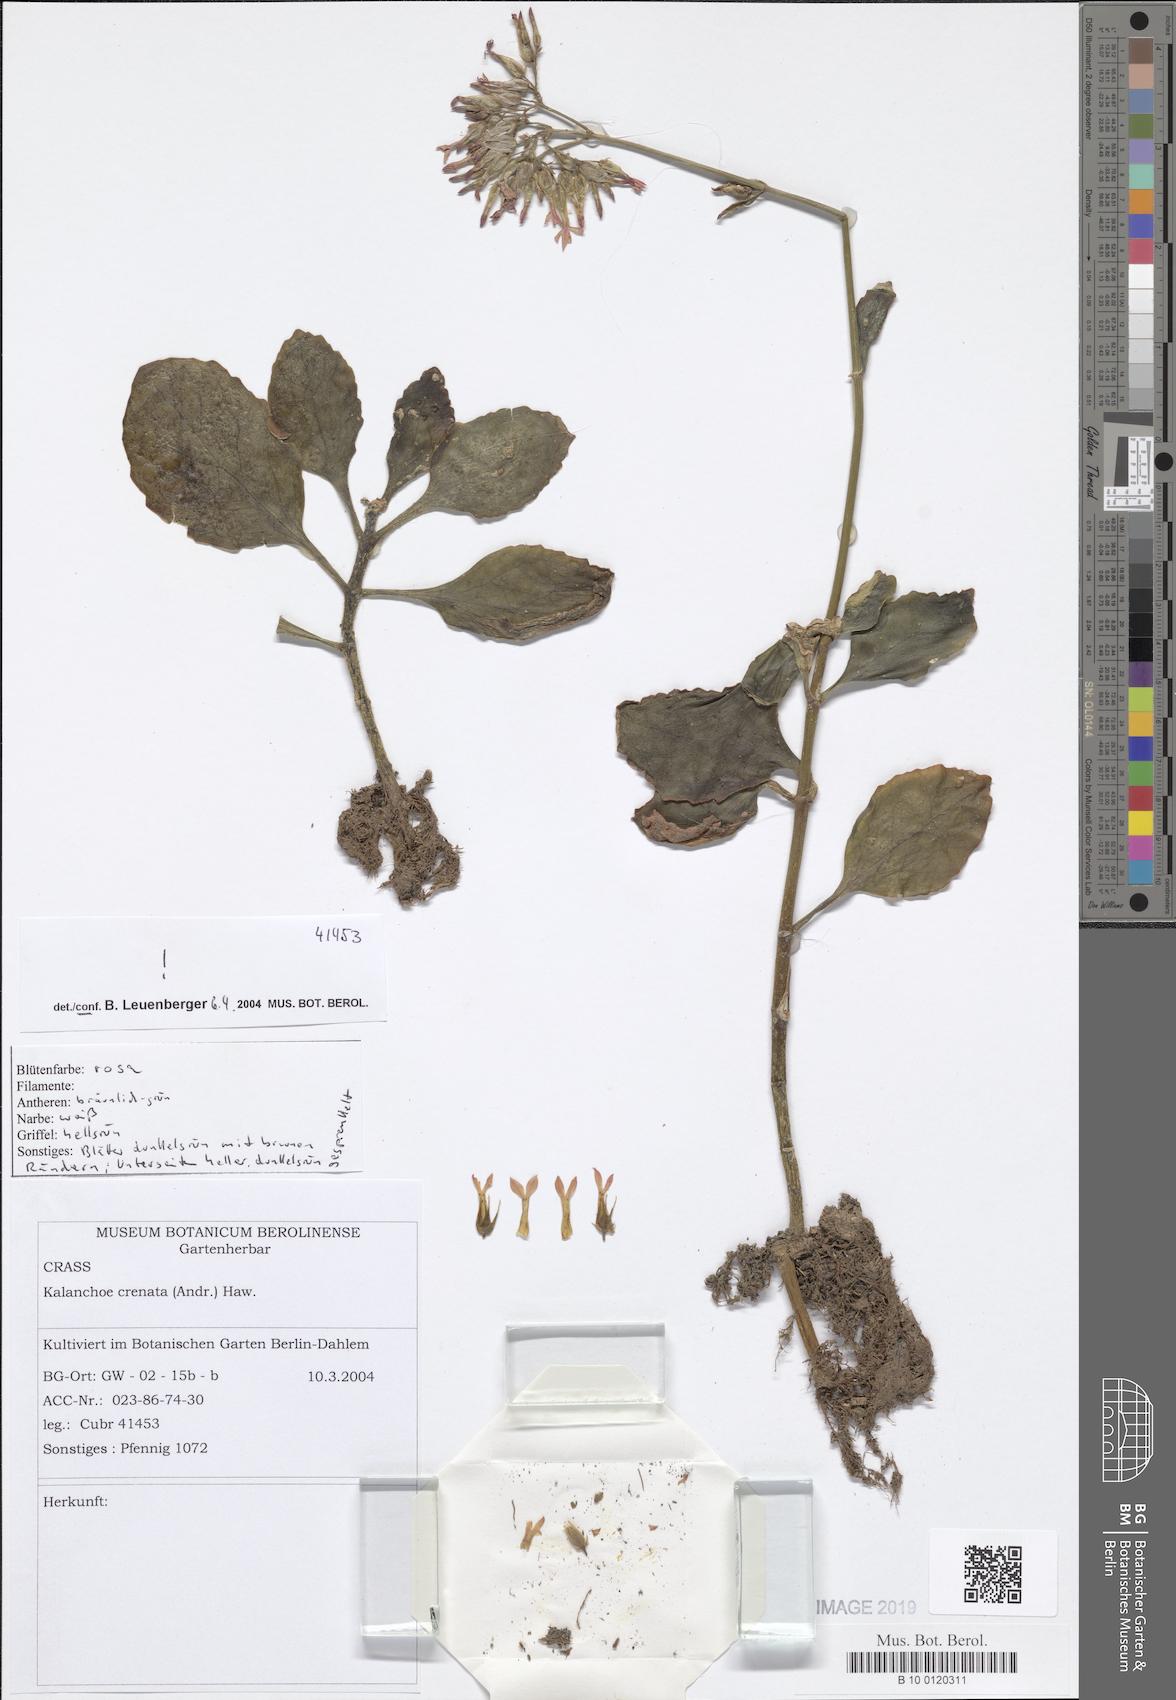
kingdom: Plantae
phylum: Tracheophyta
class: Magnoliopsida
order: Saxifragales
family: Crassulaceae
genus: Kalanchoe
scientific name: Kalanchoe crenata
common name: Neverdie
